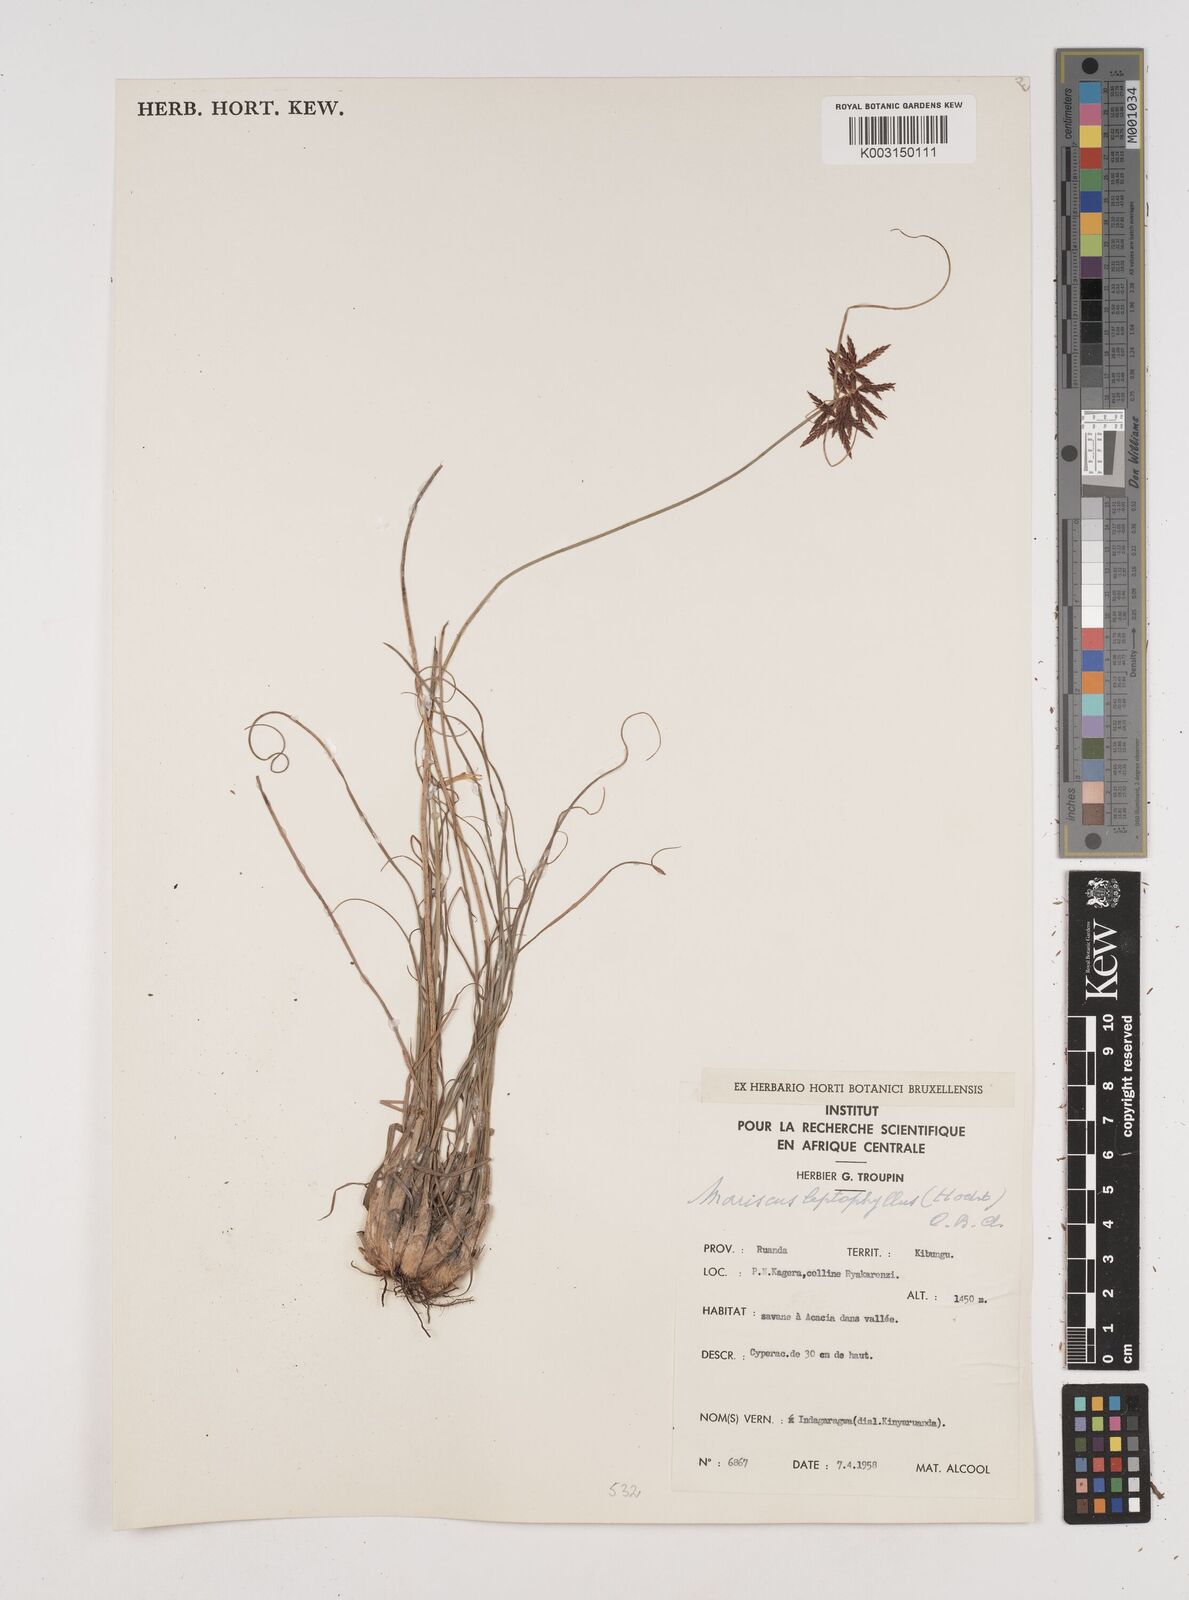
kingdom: Plantae
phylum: Tracheophyta
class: Liliopsida
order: Poales
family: Cyperaceae
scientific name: Cyperaceae
